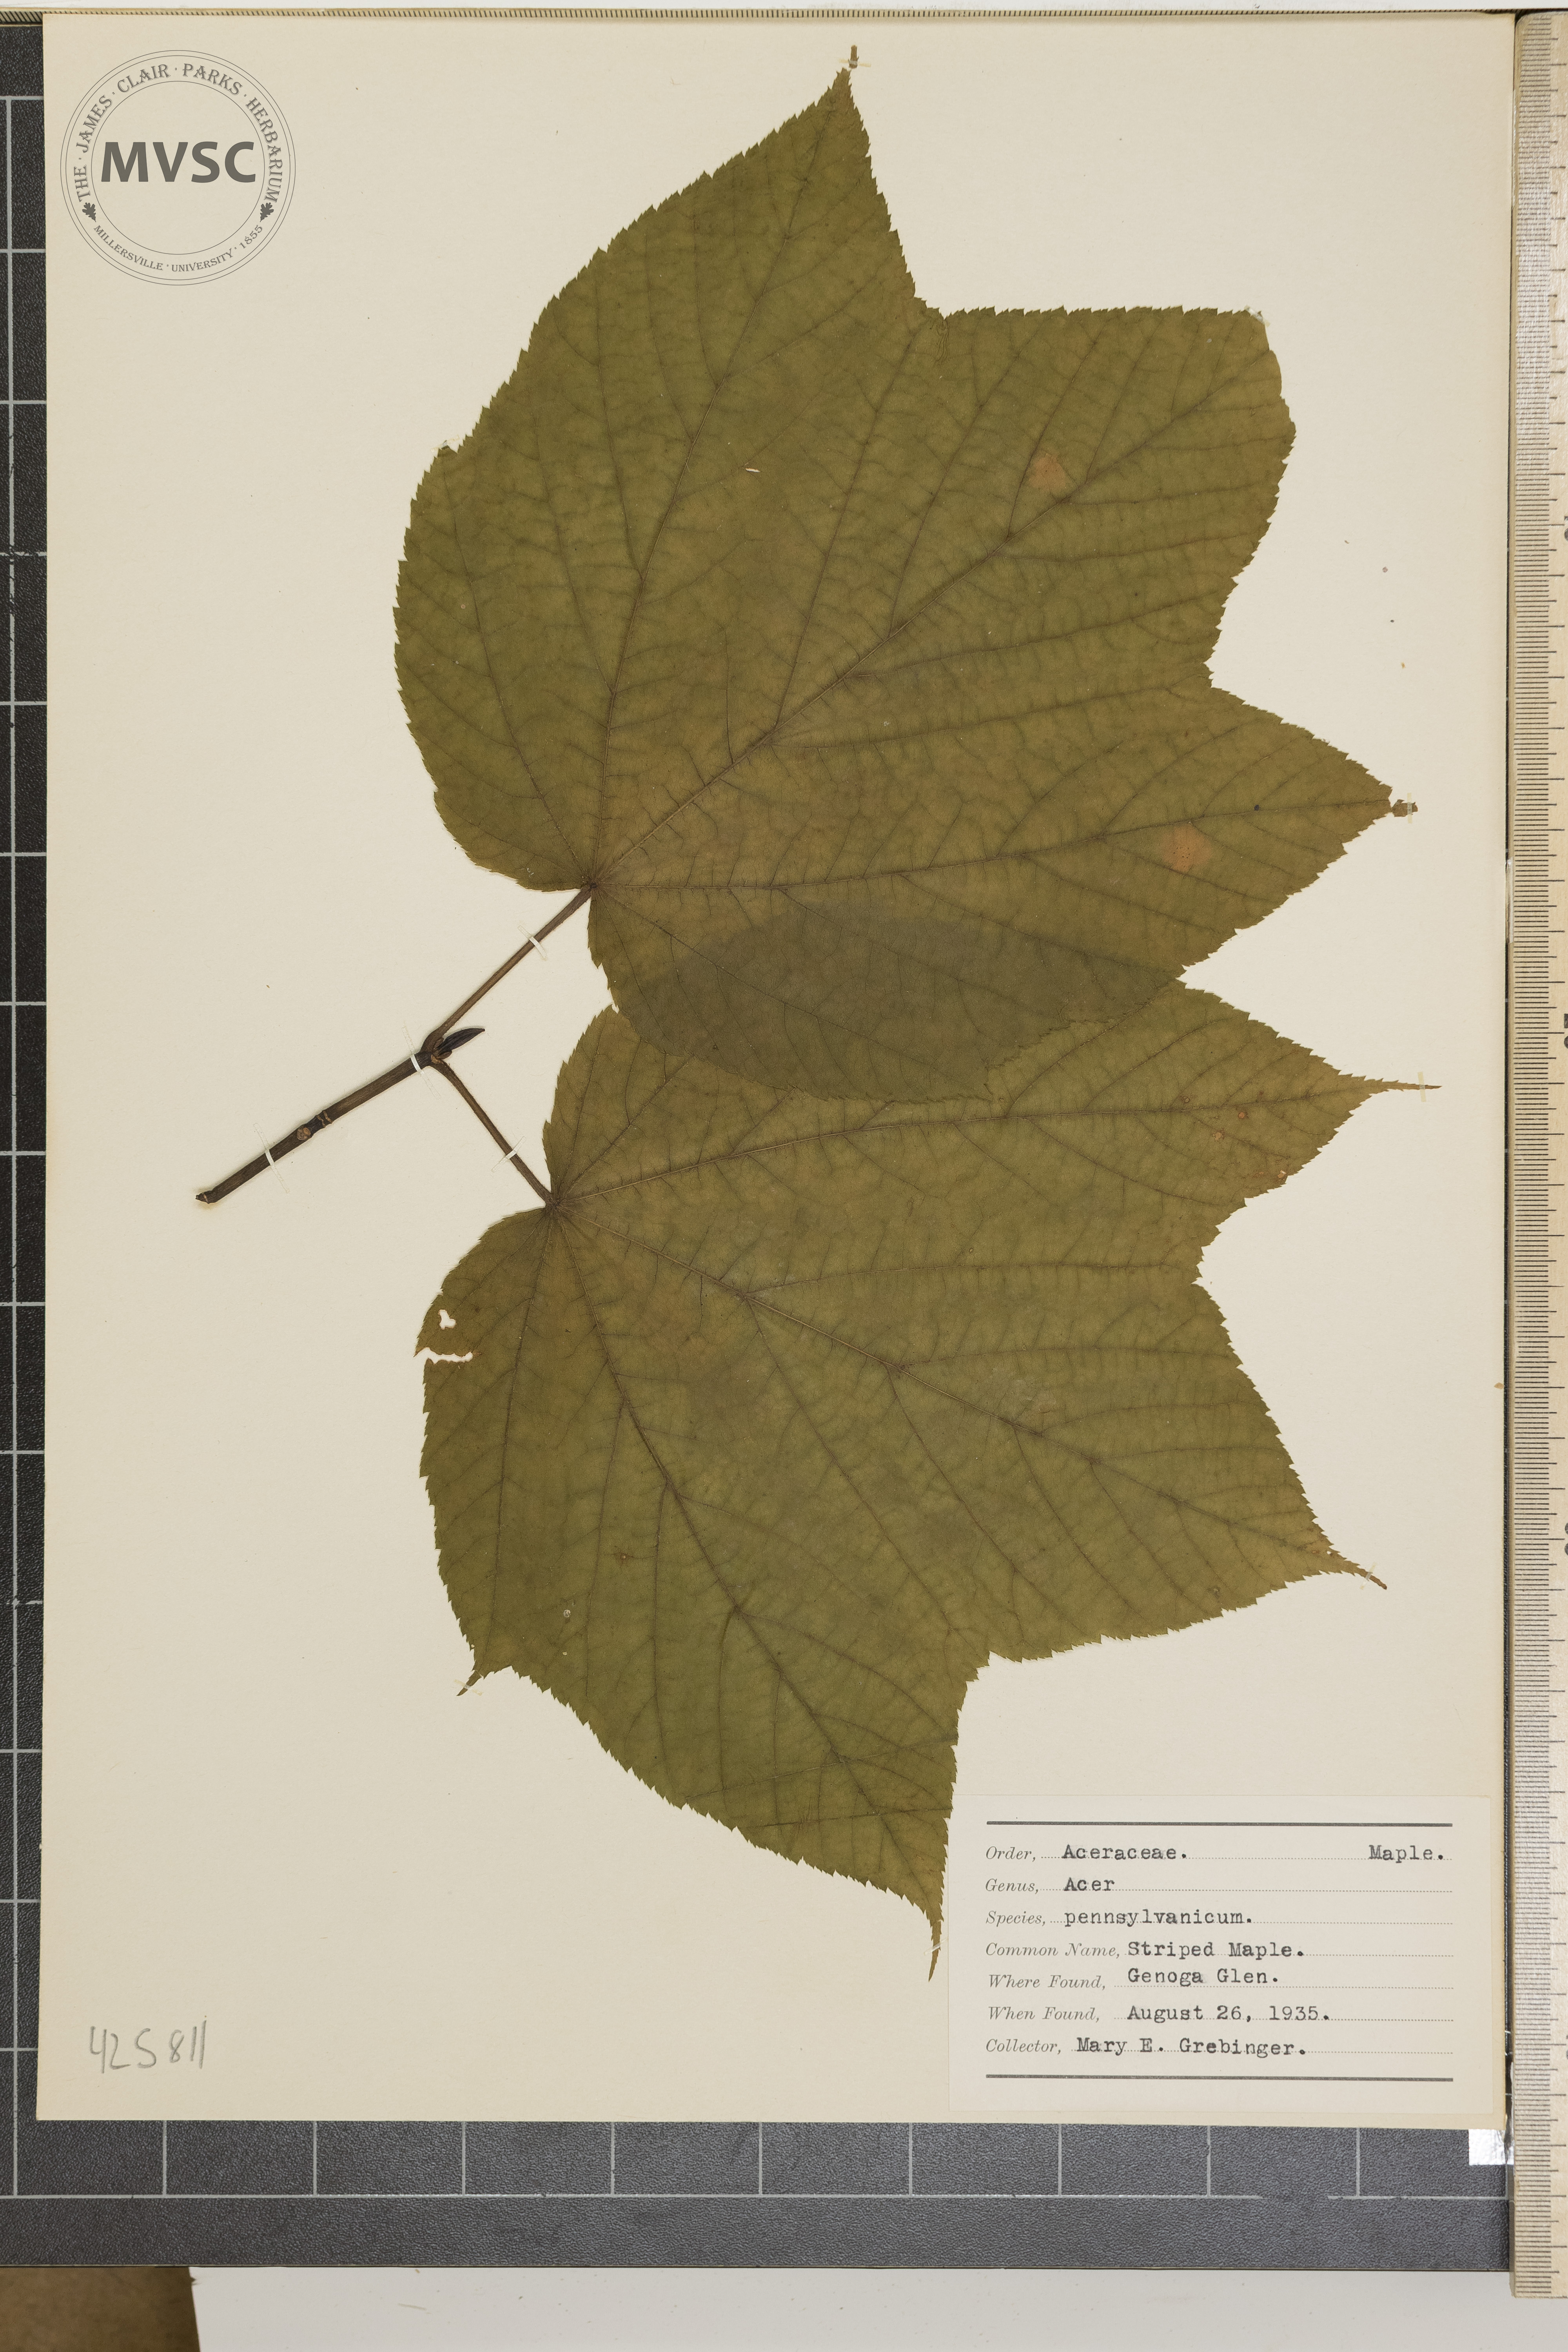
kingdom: Plantae
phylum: Tracheophyta
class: Magnoliopsida
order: Sapindales
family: Sapindaceae
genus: Acer
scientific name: Acer pensylvanicum
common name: Striped Maple
